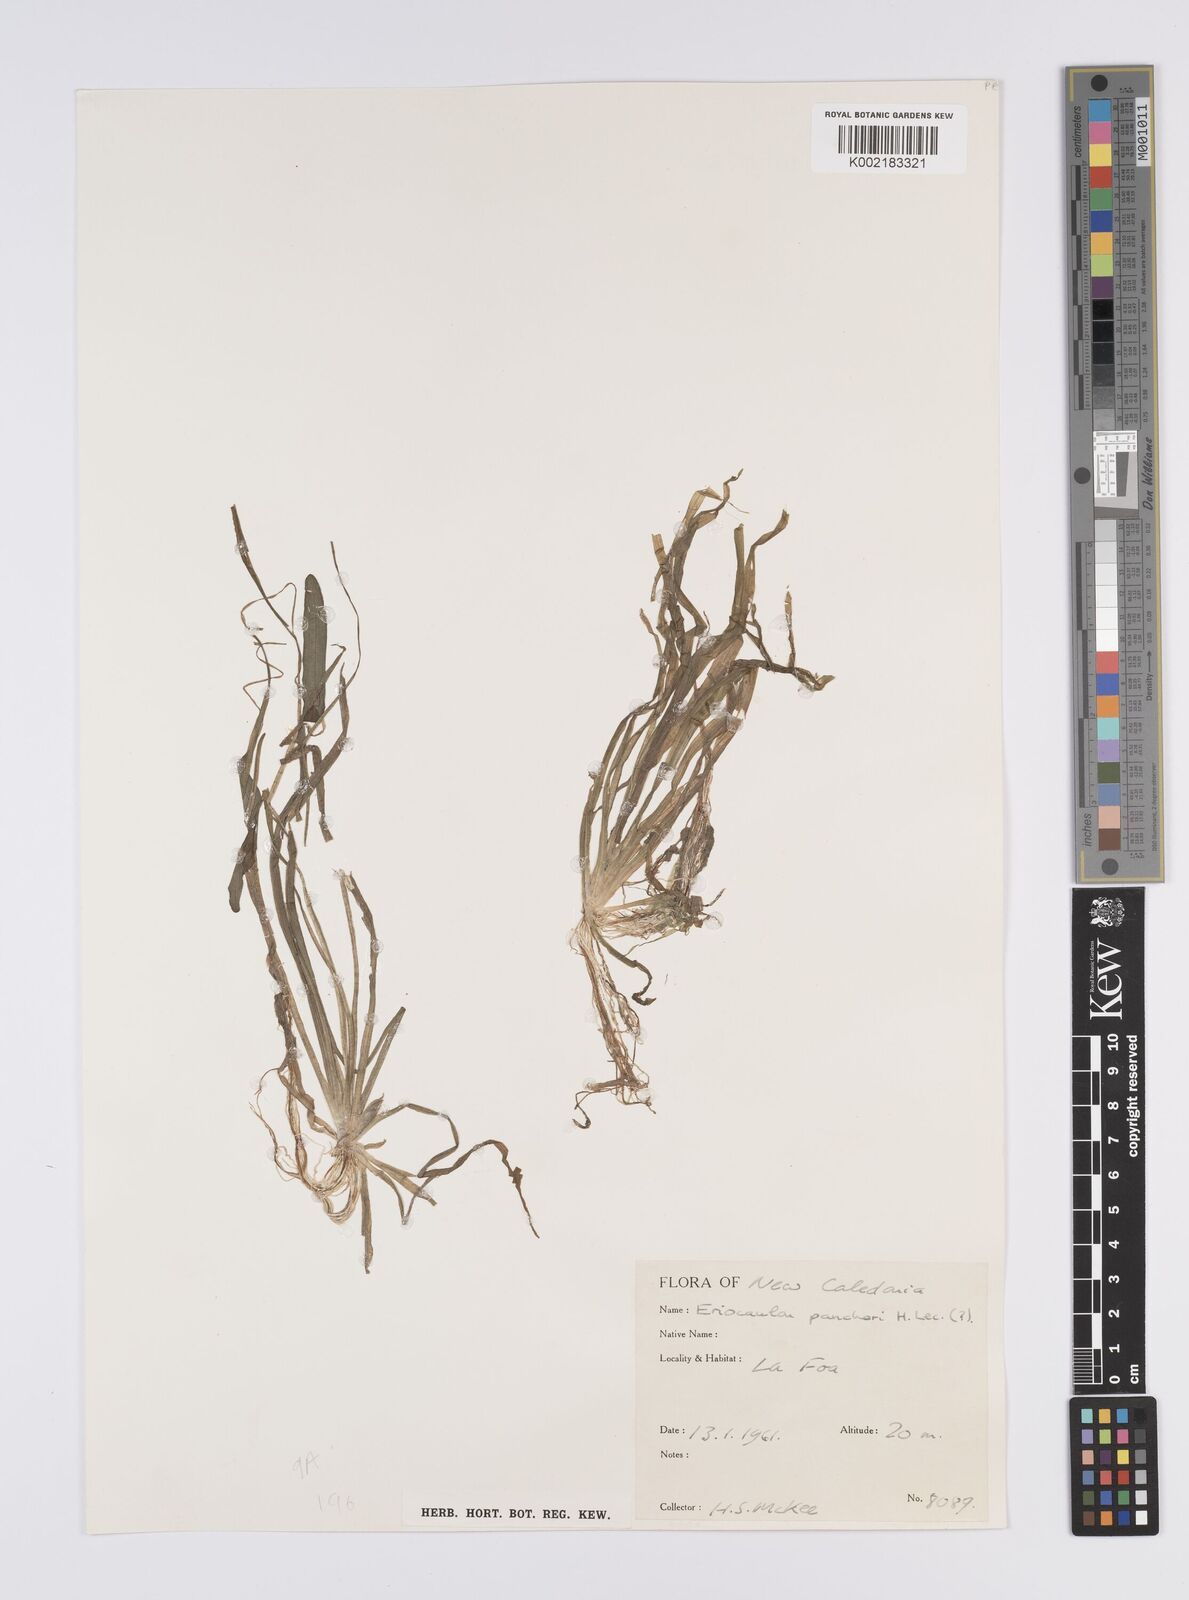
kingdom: Plantae
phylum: Tracheophyta
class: Liliopsida
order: Poales
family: Eriocaulaceae
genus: Eriocaulon
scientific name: Eriocaulon pancheri
